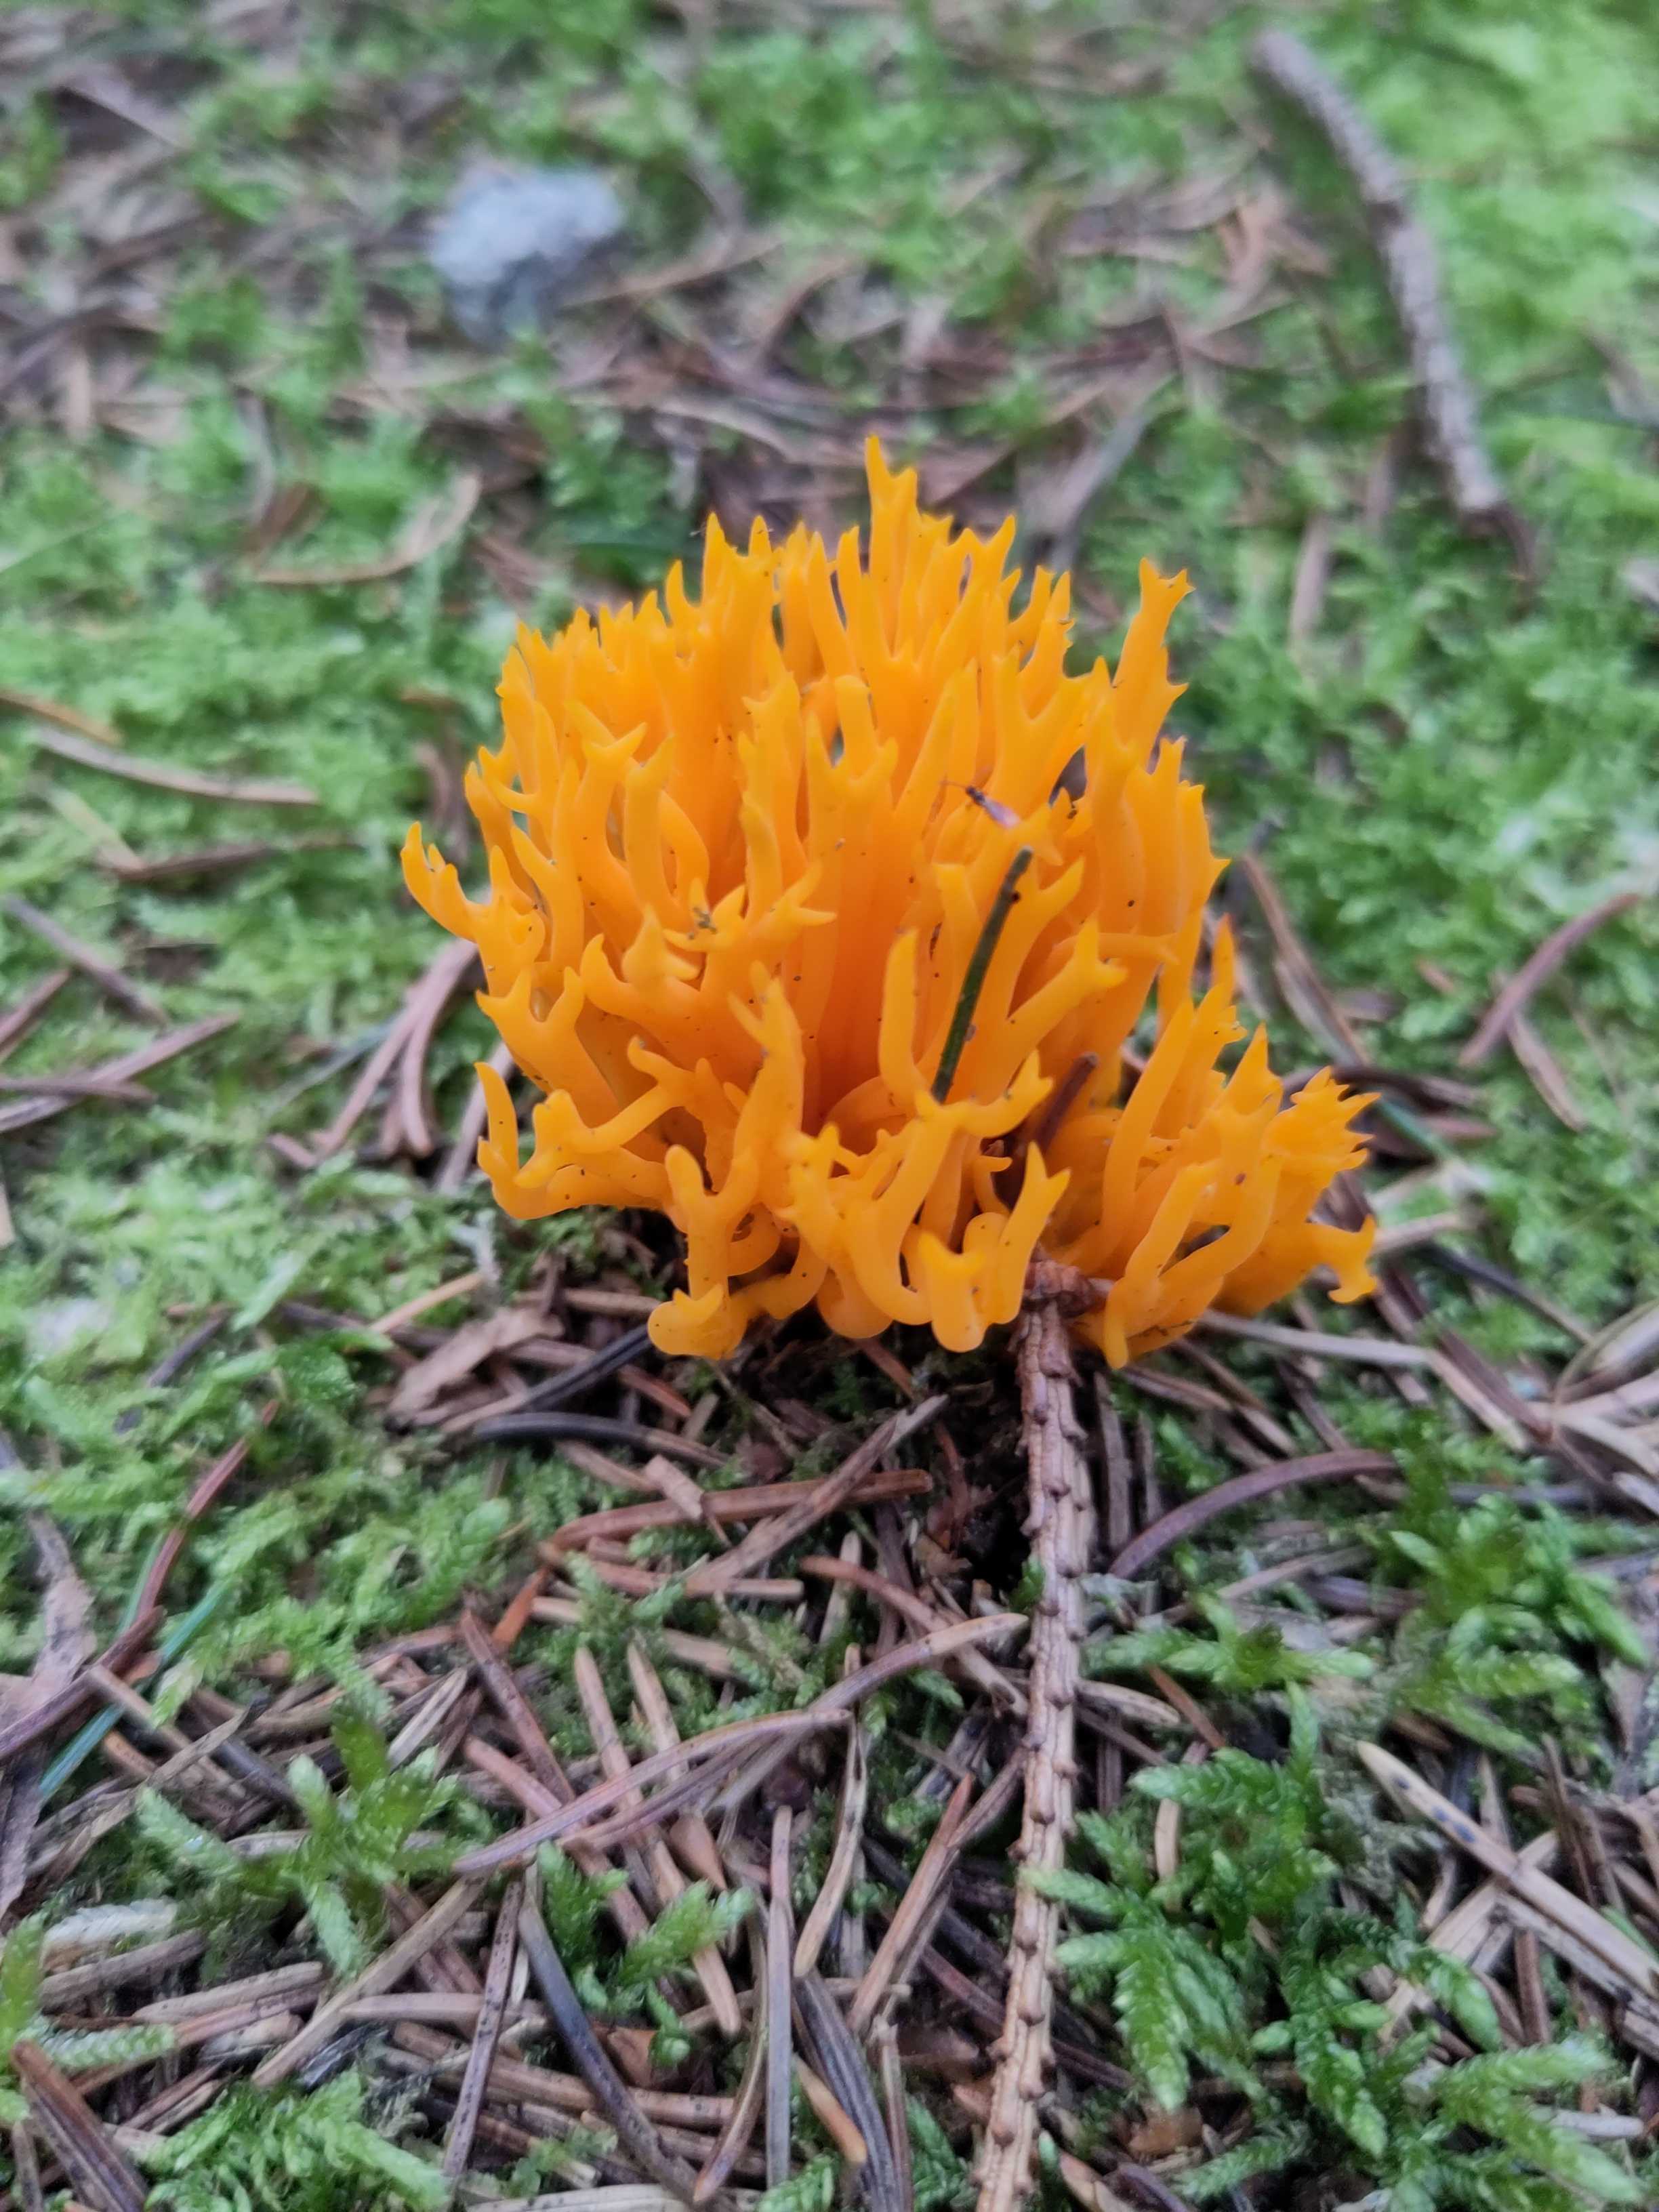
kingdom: Fungi
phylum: Basidiomycota
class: Dacrymycetes
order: Dacrymycetales
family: Dacrymycetaceae
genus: Calocera
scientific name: Calocera viscosa
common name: almindelig guldgaffel
